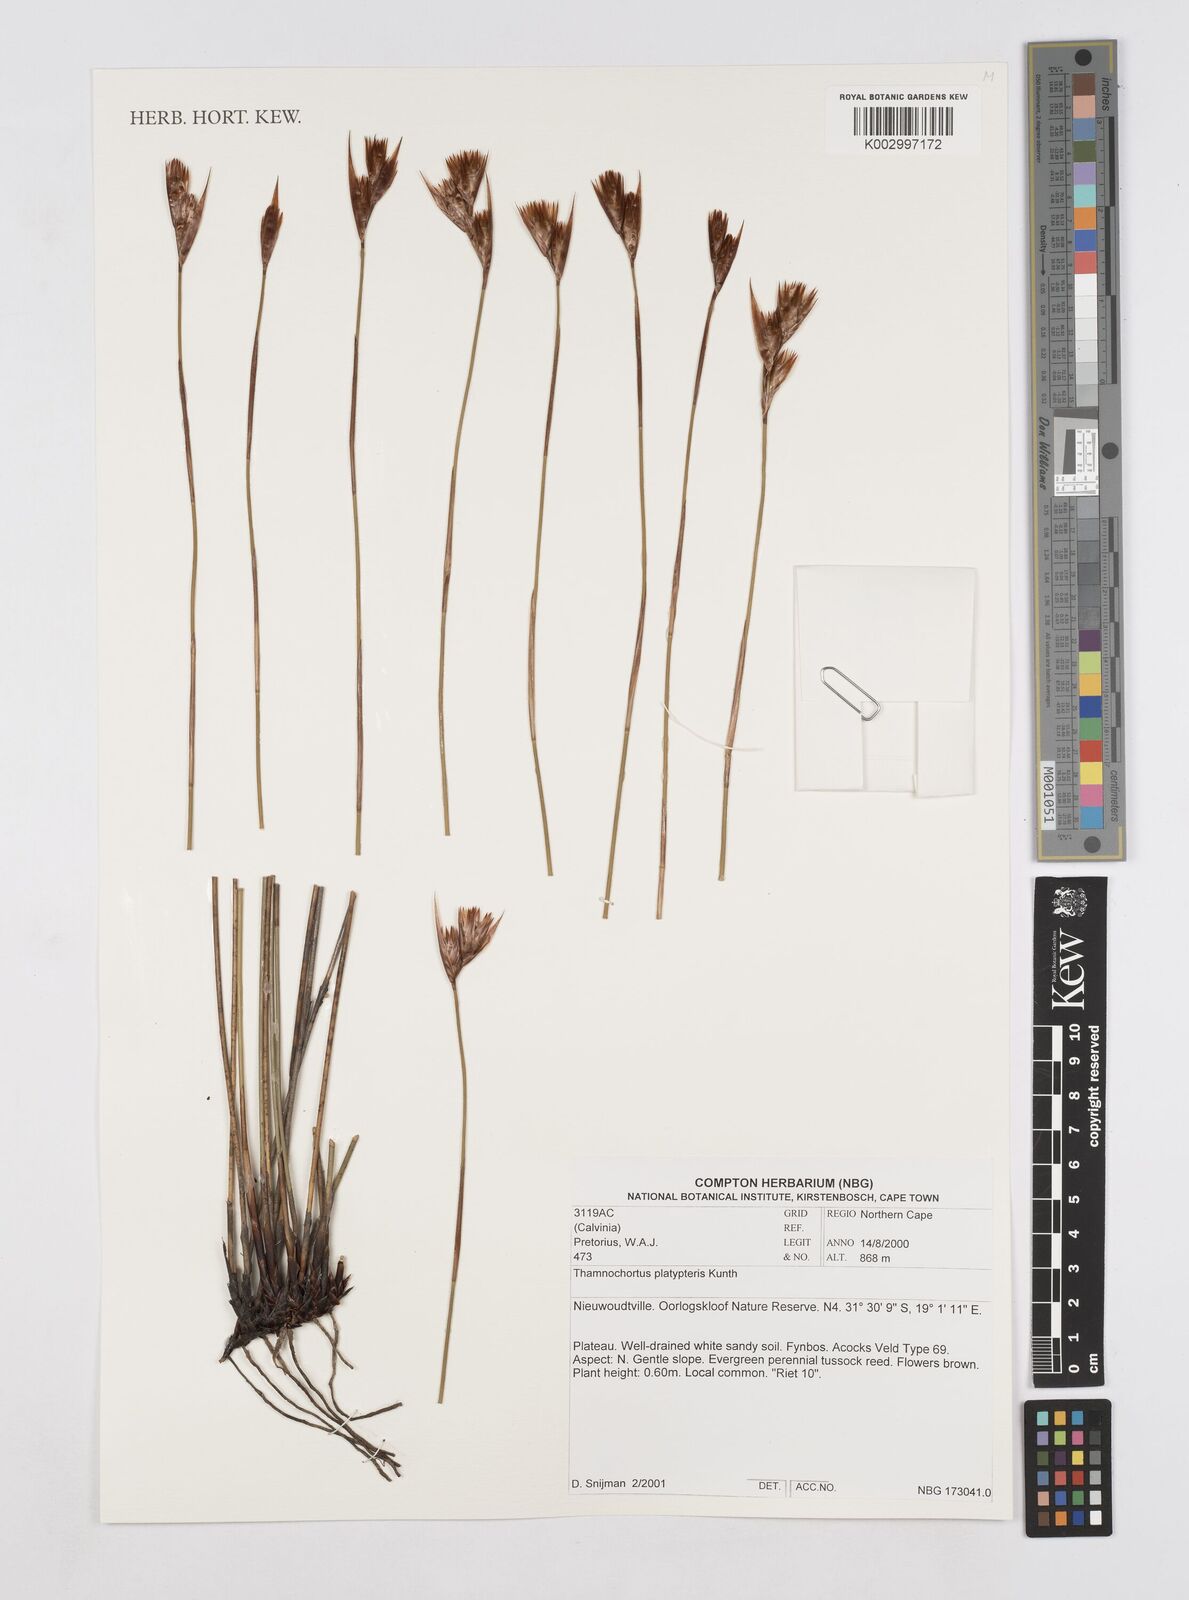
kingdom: Plantae
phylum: Tracheophyta
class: Liliopsida
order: Poales
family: Restionaceae
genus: Thamnochortus
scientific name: Thamnochortus platypteris
